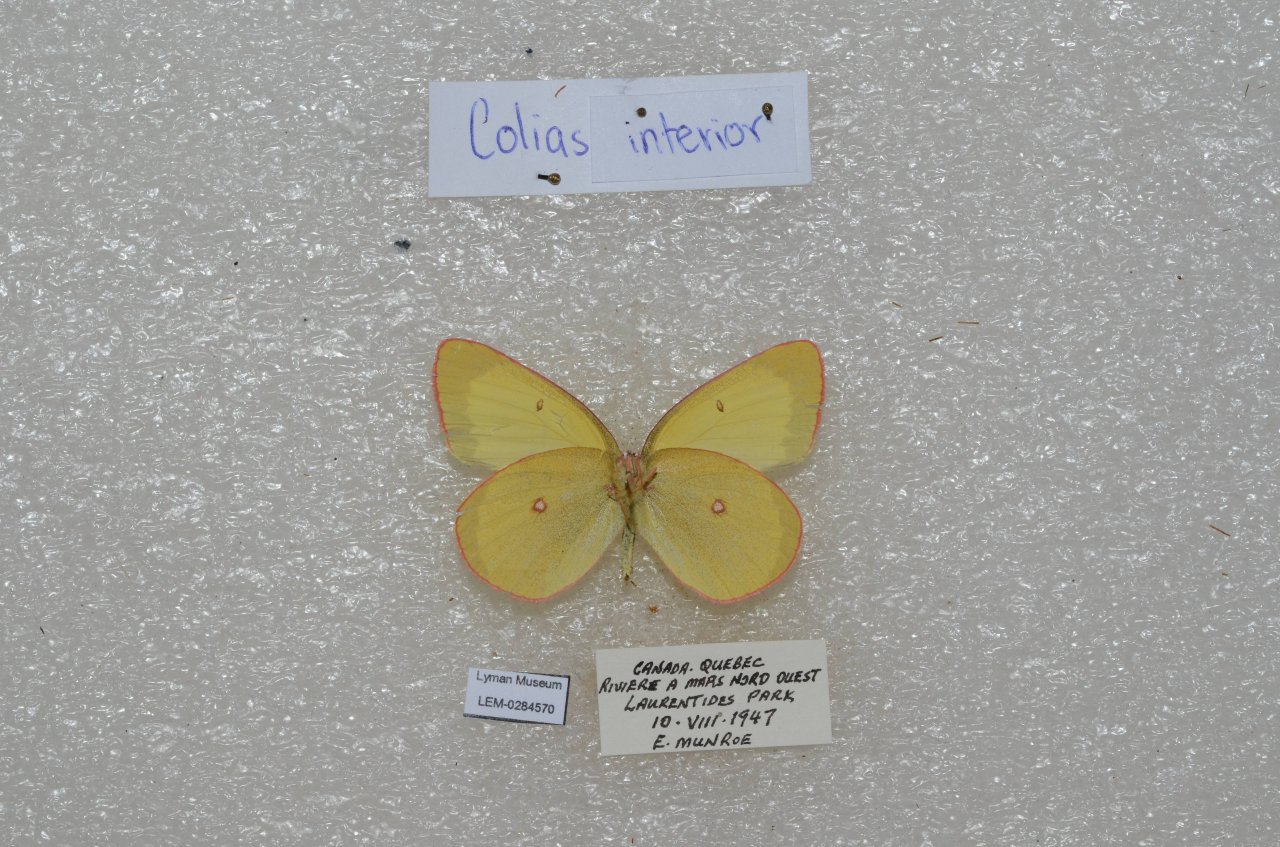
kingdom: Animalia
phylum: Arthropoda
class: Insecta
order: Lepidoptera
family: Pieridae
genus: Colias
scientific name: Colias interior
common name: Pink-edged Sulphur
